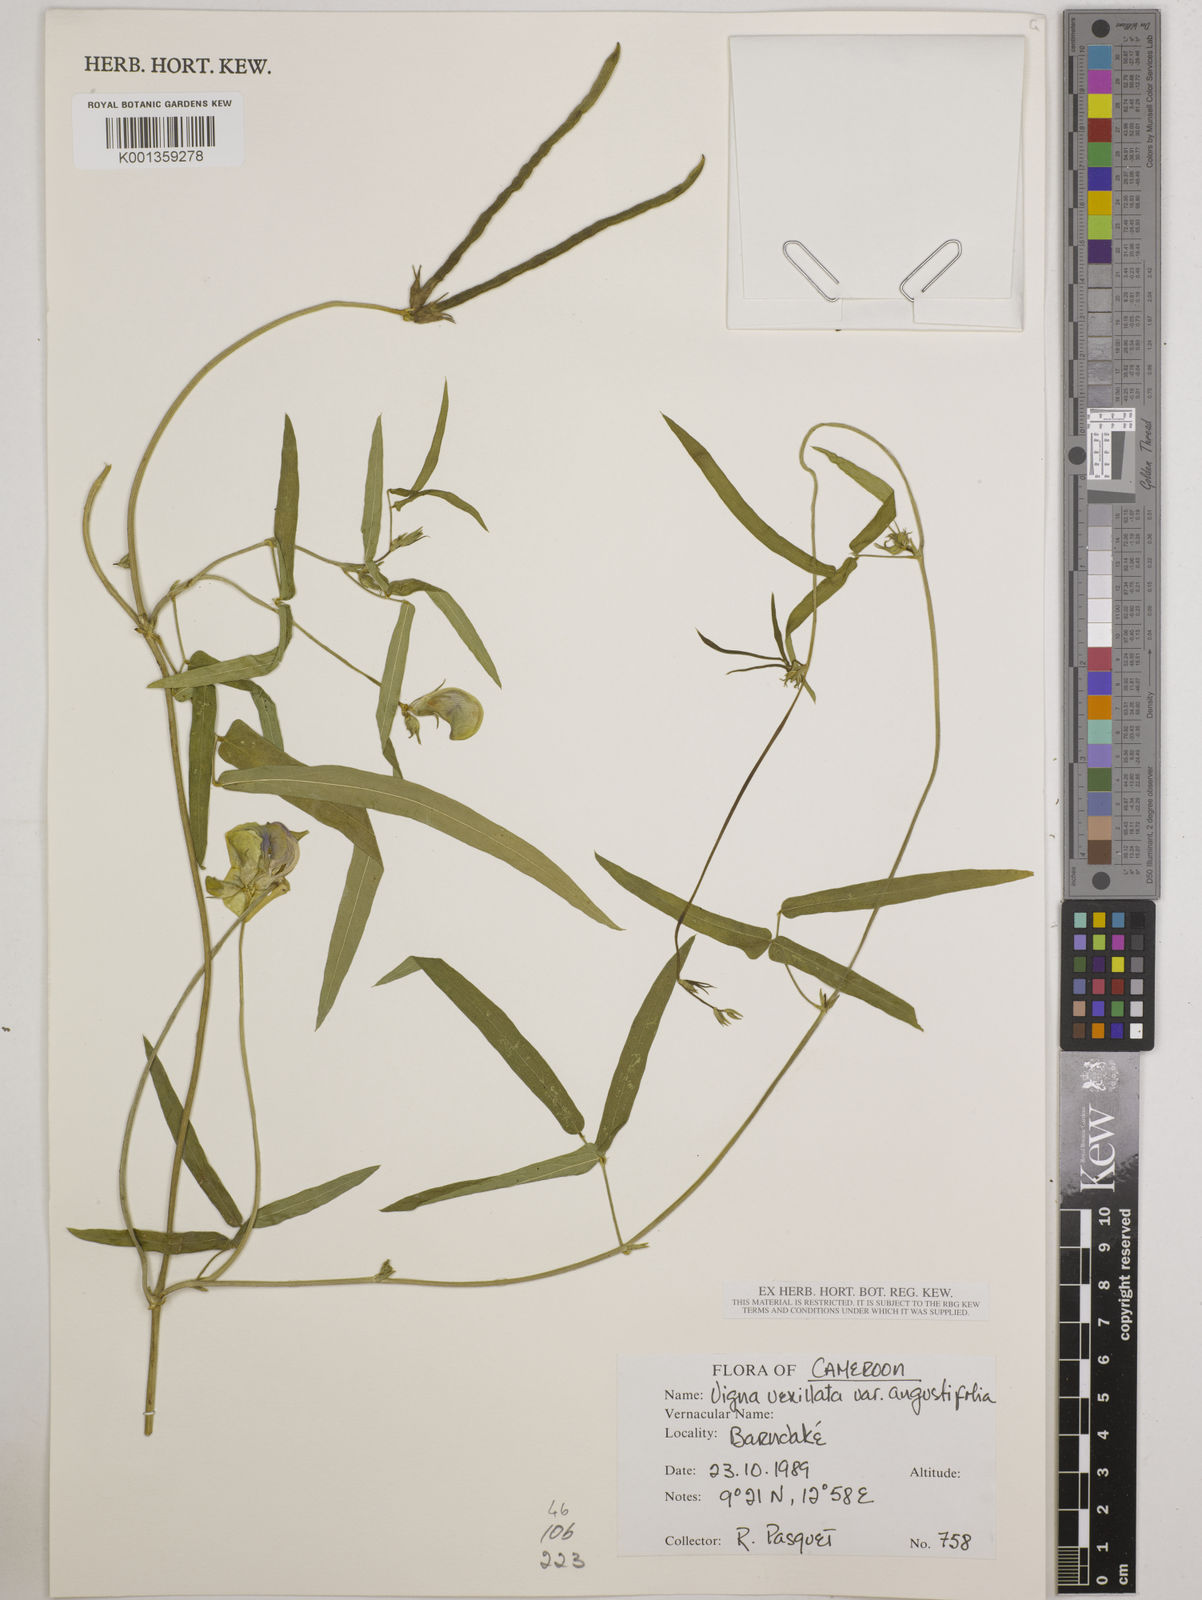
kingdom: Plantae
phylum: Tracheophyta
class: Magnoliopsida
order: Fabales
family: Fabaceae
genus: Vigna
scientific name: Vigna vexillata
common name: Zombi pea
